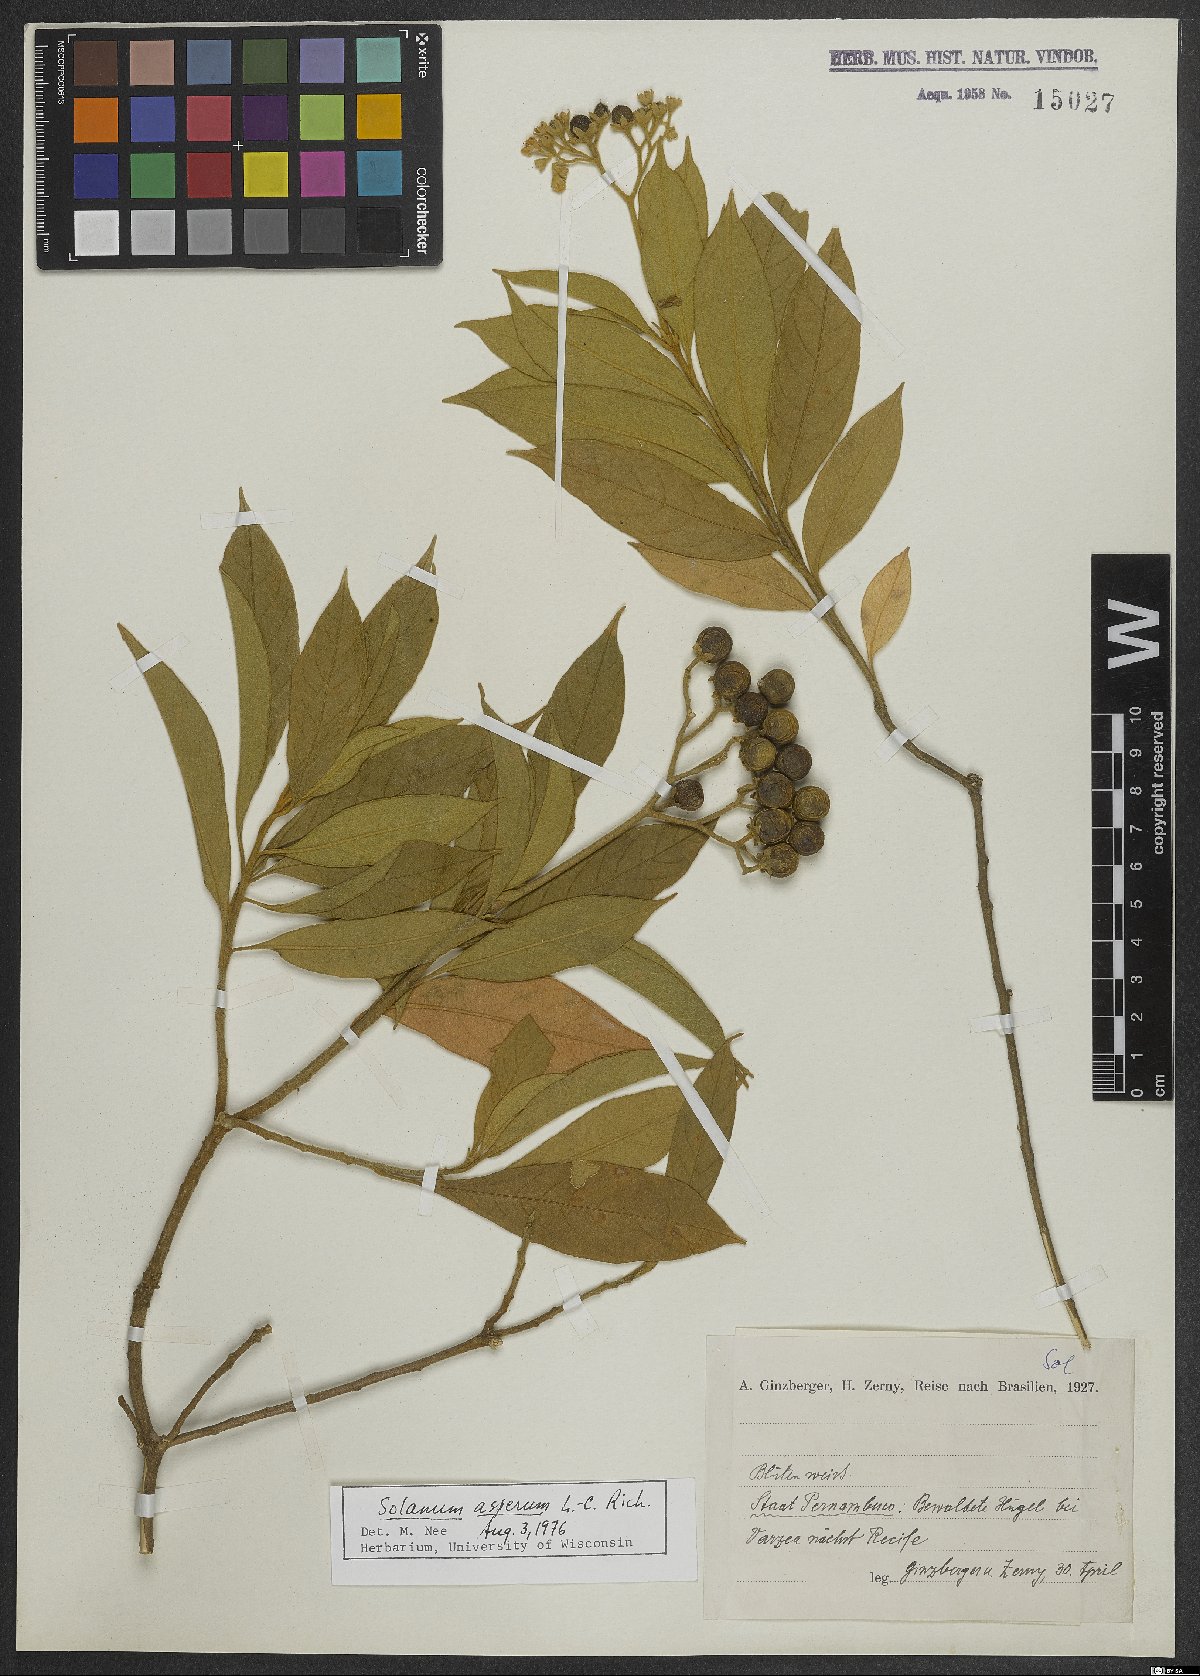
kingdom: Plantae
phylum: Tracheophyta
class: Magnoliopsida
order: Solanales
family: Solanaceae
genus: Solanum
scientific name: Solanum asperum
